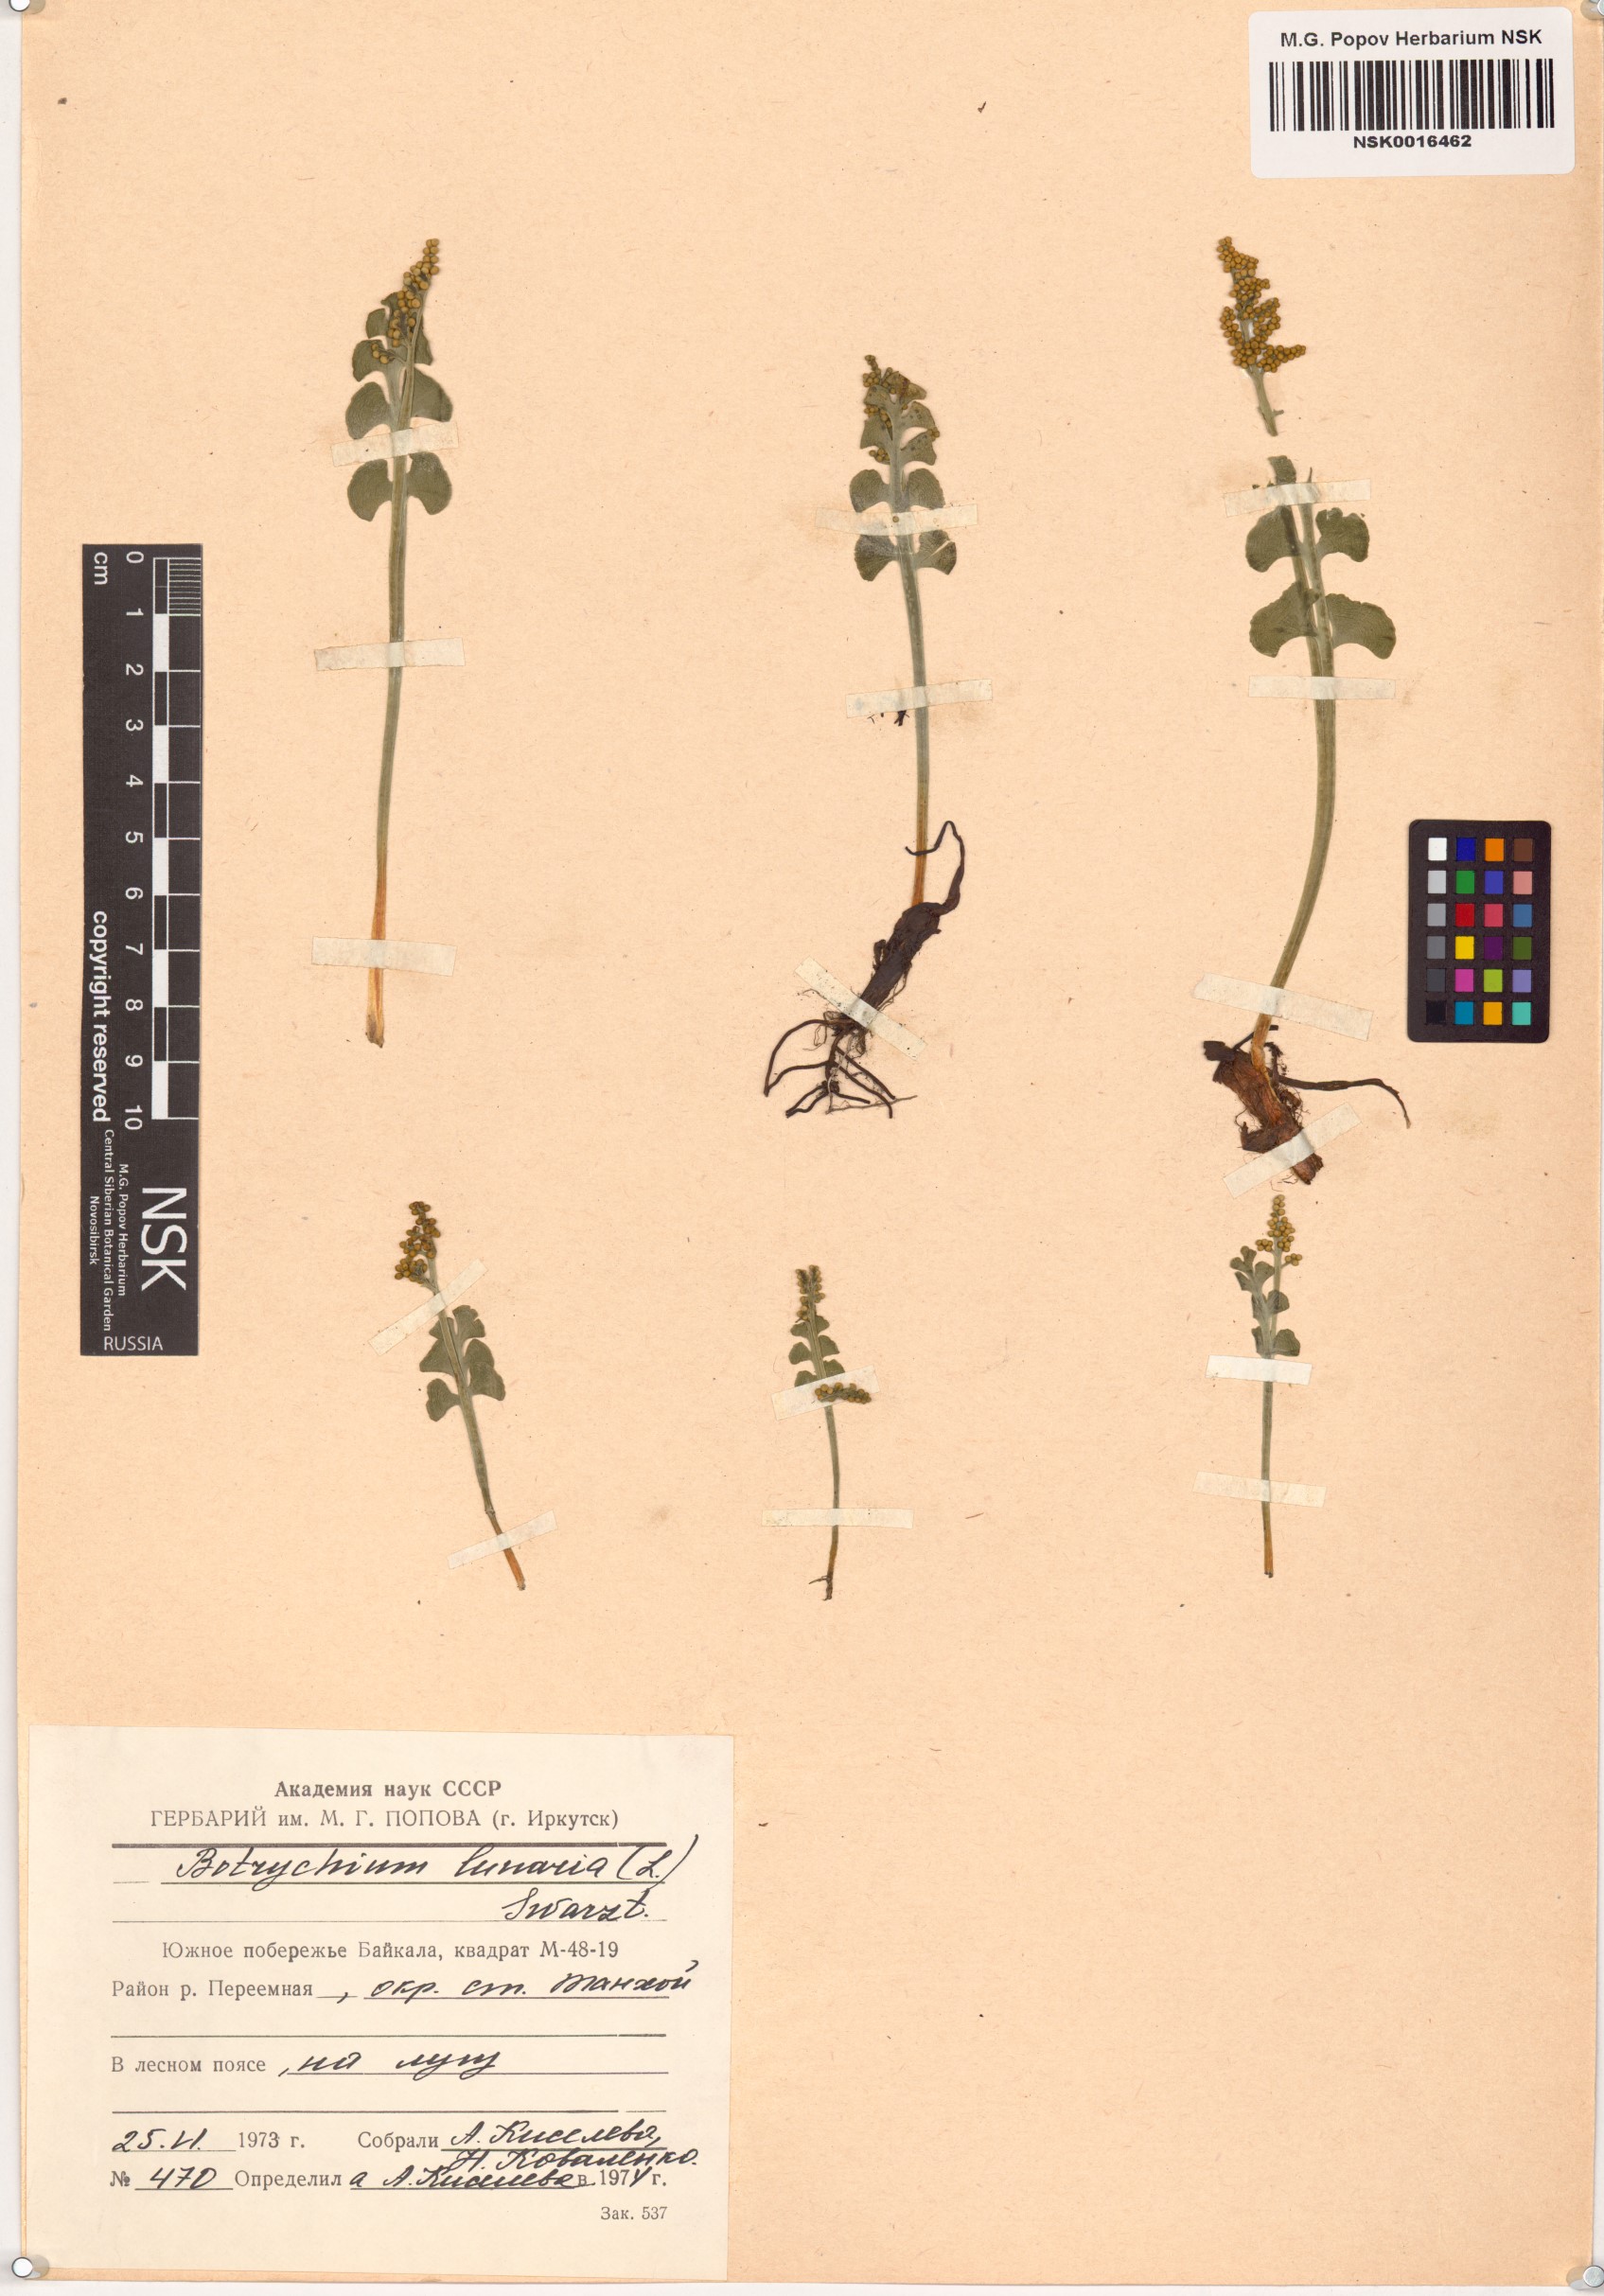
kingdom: Plantae
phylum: Tracheophyta
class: Polypodiopsida
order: Ophioglossales
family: Ophioglossaceae
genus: Botrychium
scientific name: Botrychium lunaria
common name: Moonwort
